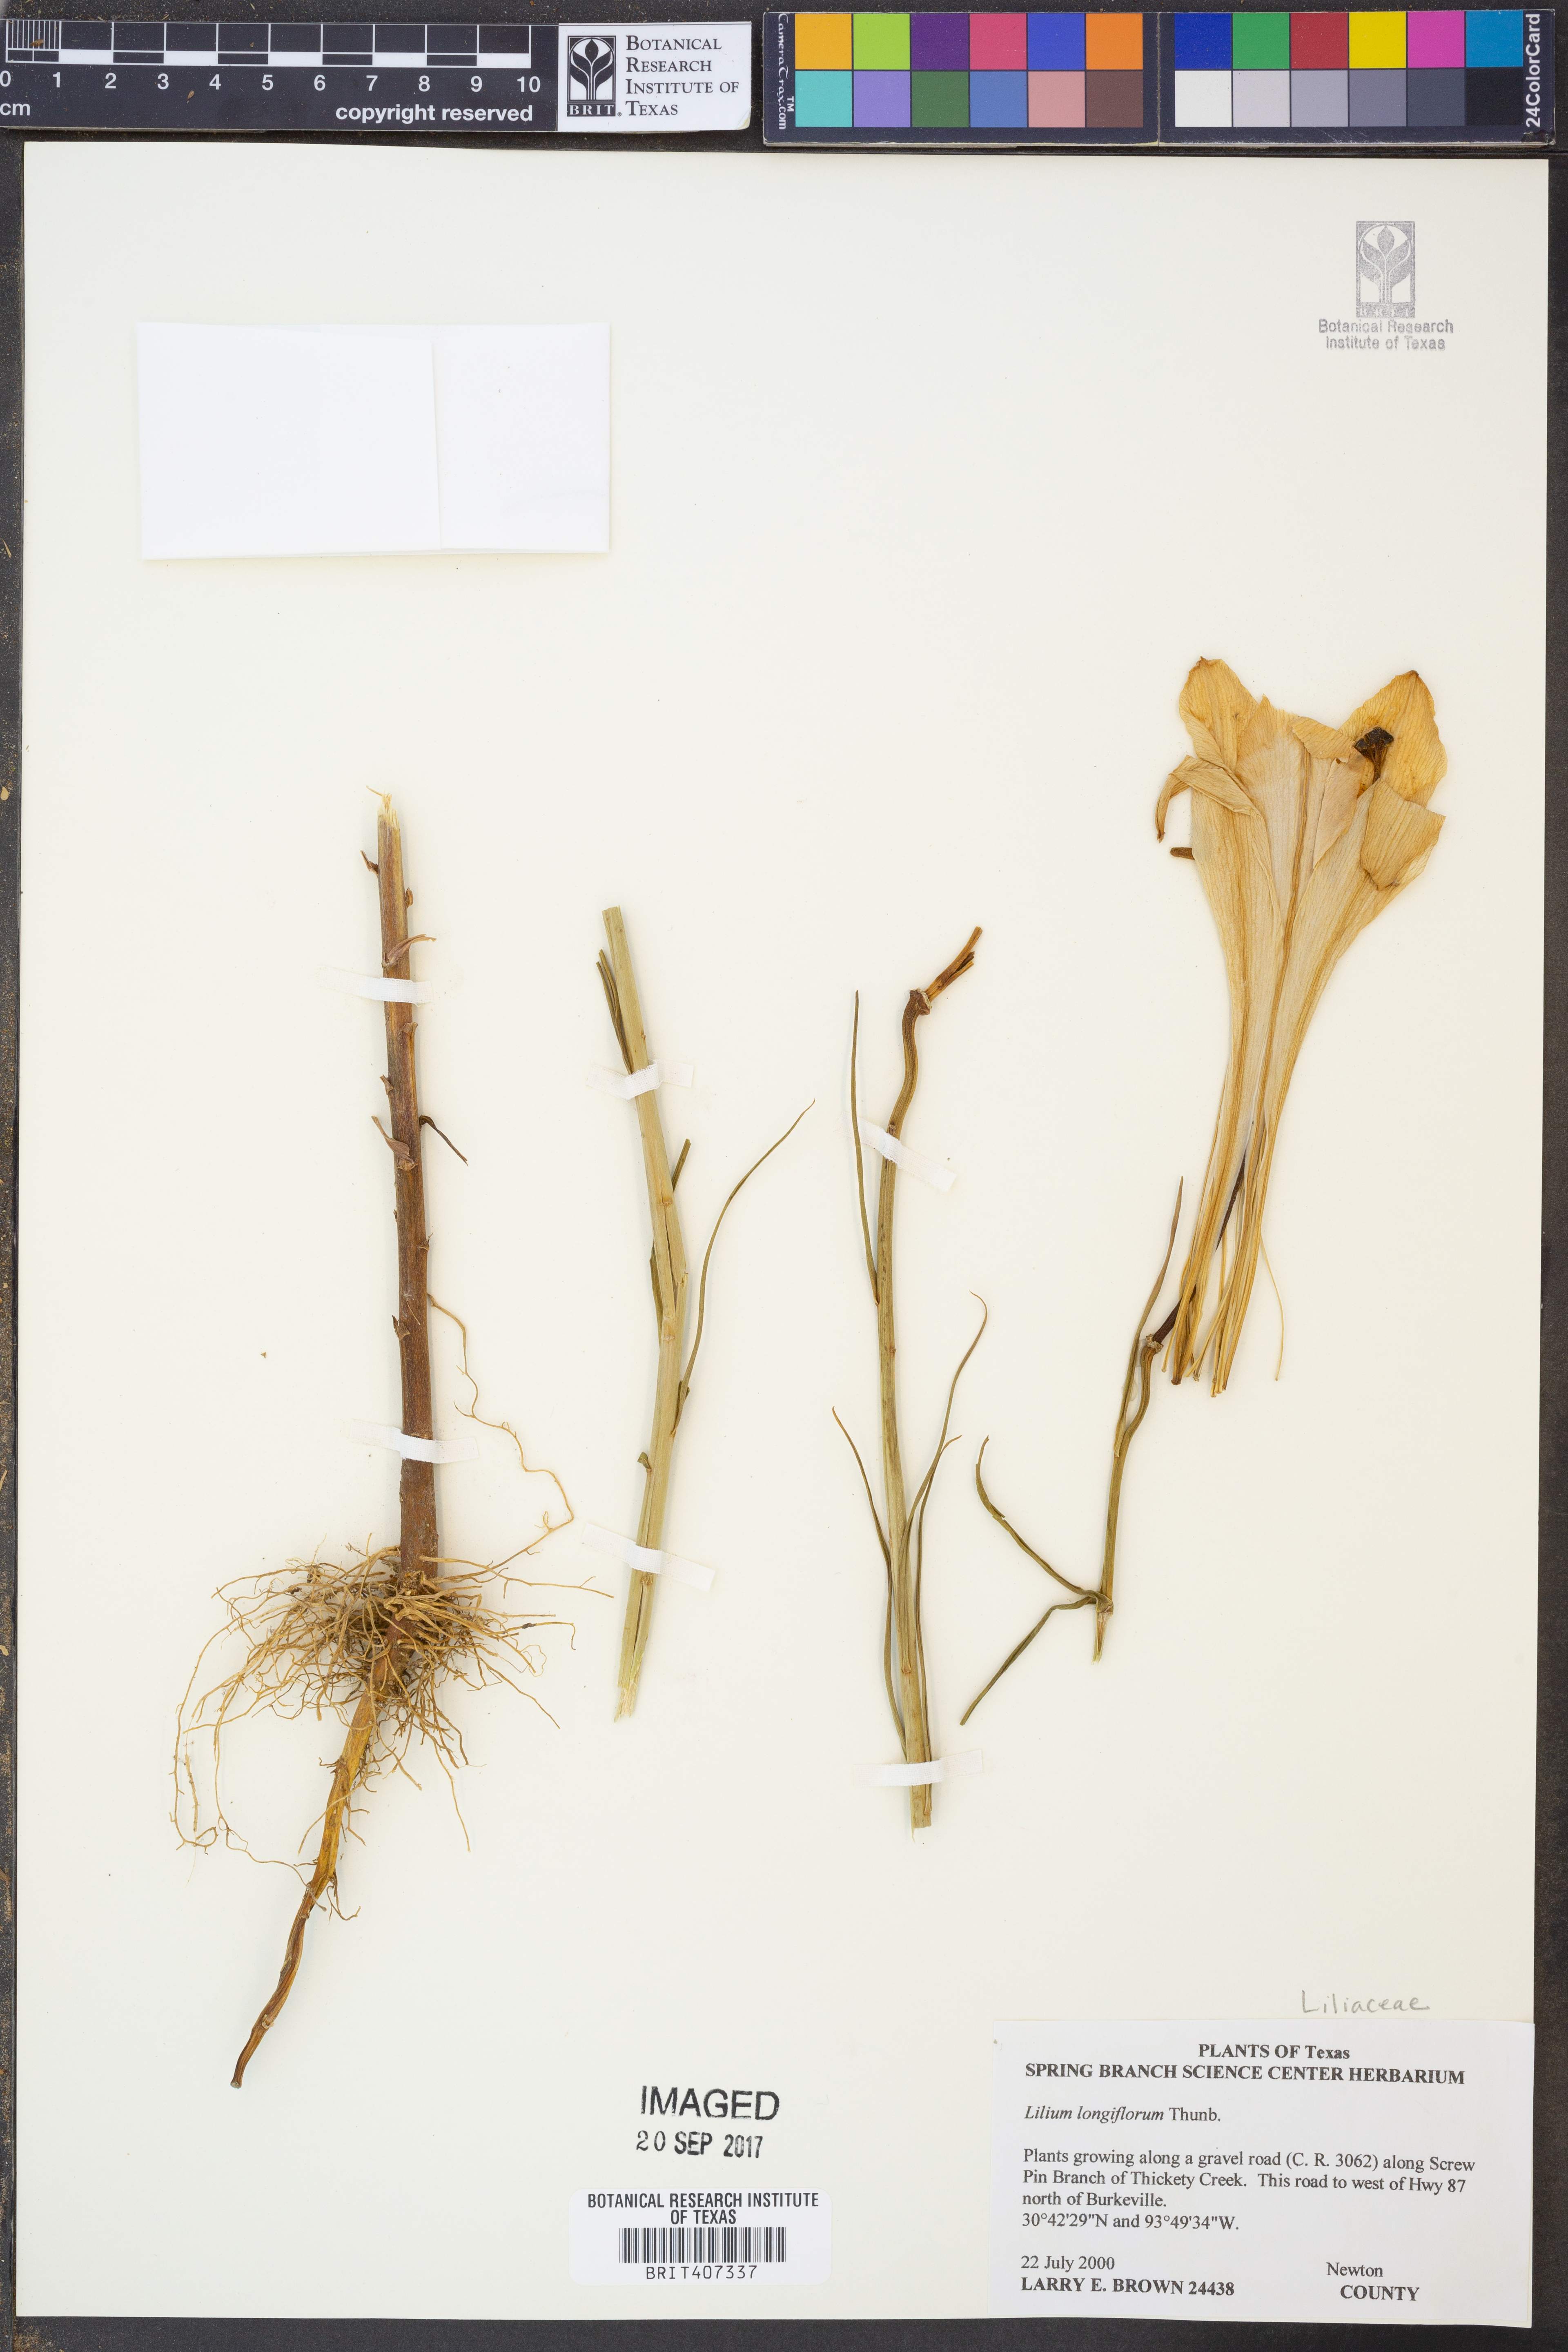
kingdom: Plantae
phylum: Tracheophyta
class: Liliopsida
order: Liliales
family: Liliaceae
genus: Lilium
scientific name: Lilium wallichianum
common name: Wallich's lily
